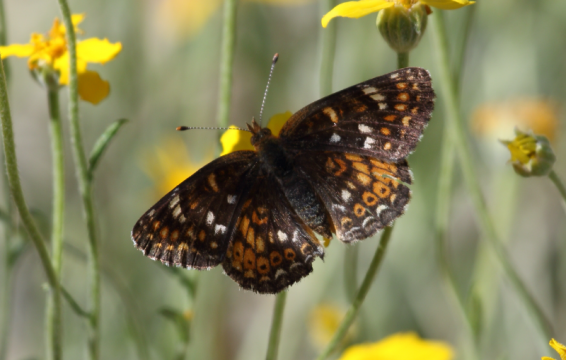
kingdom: Animalia
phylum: Arthropoda
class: Insecta
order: Lepidoptera
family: Nymphalidae
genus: Phyciodes
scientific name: Phyciodes orseis
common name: California Crescent
